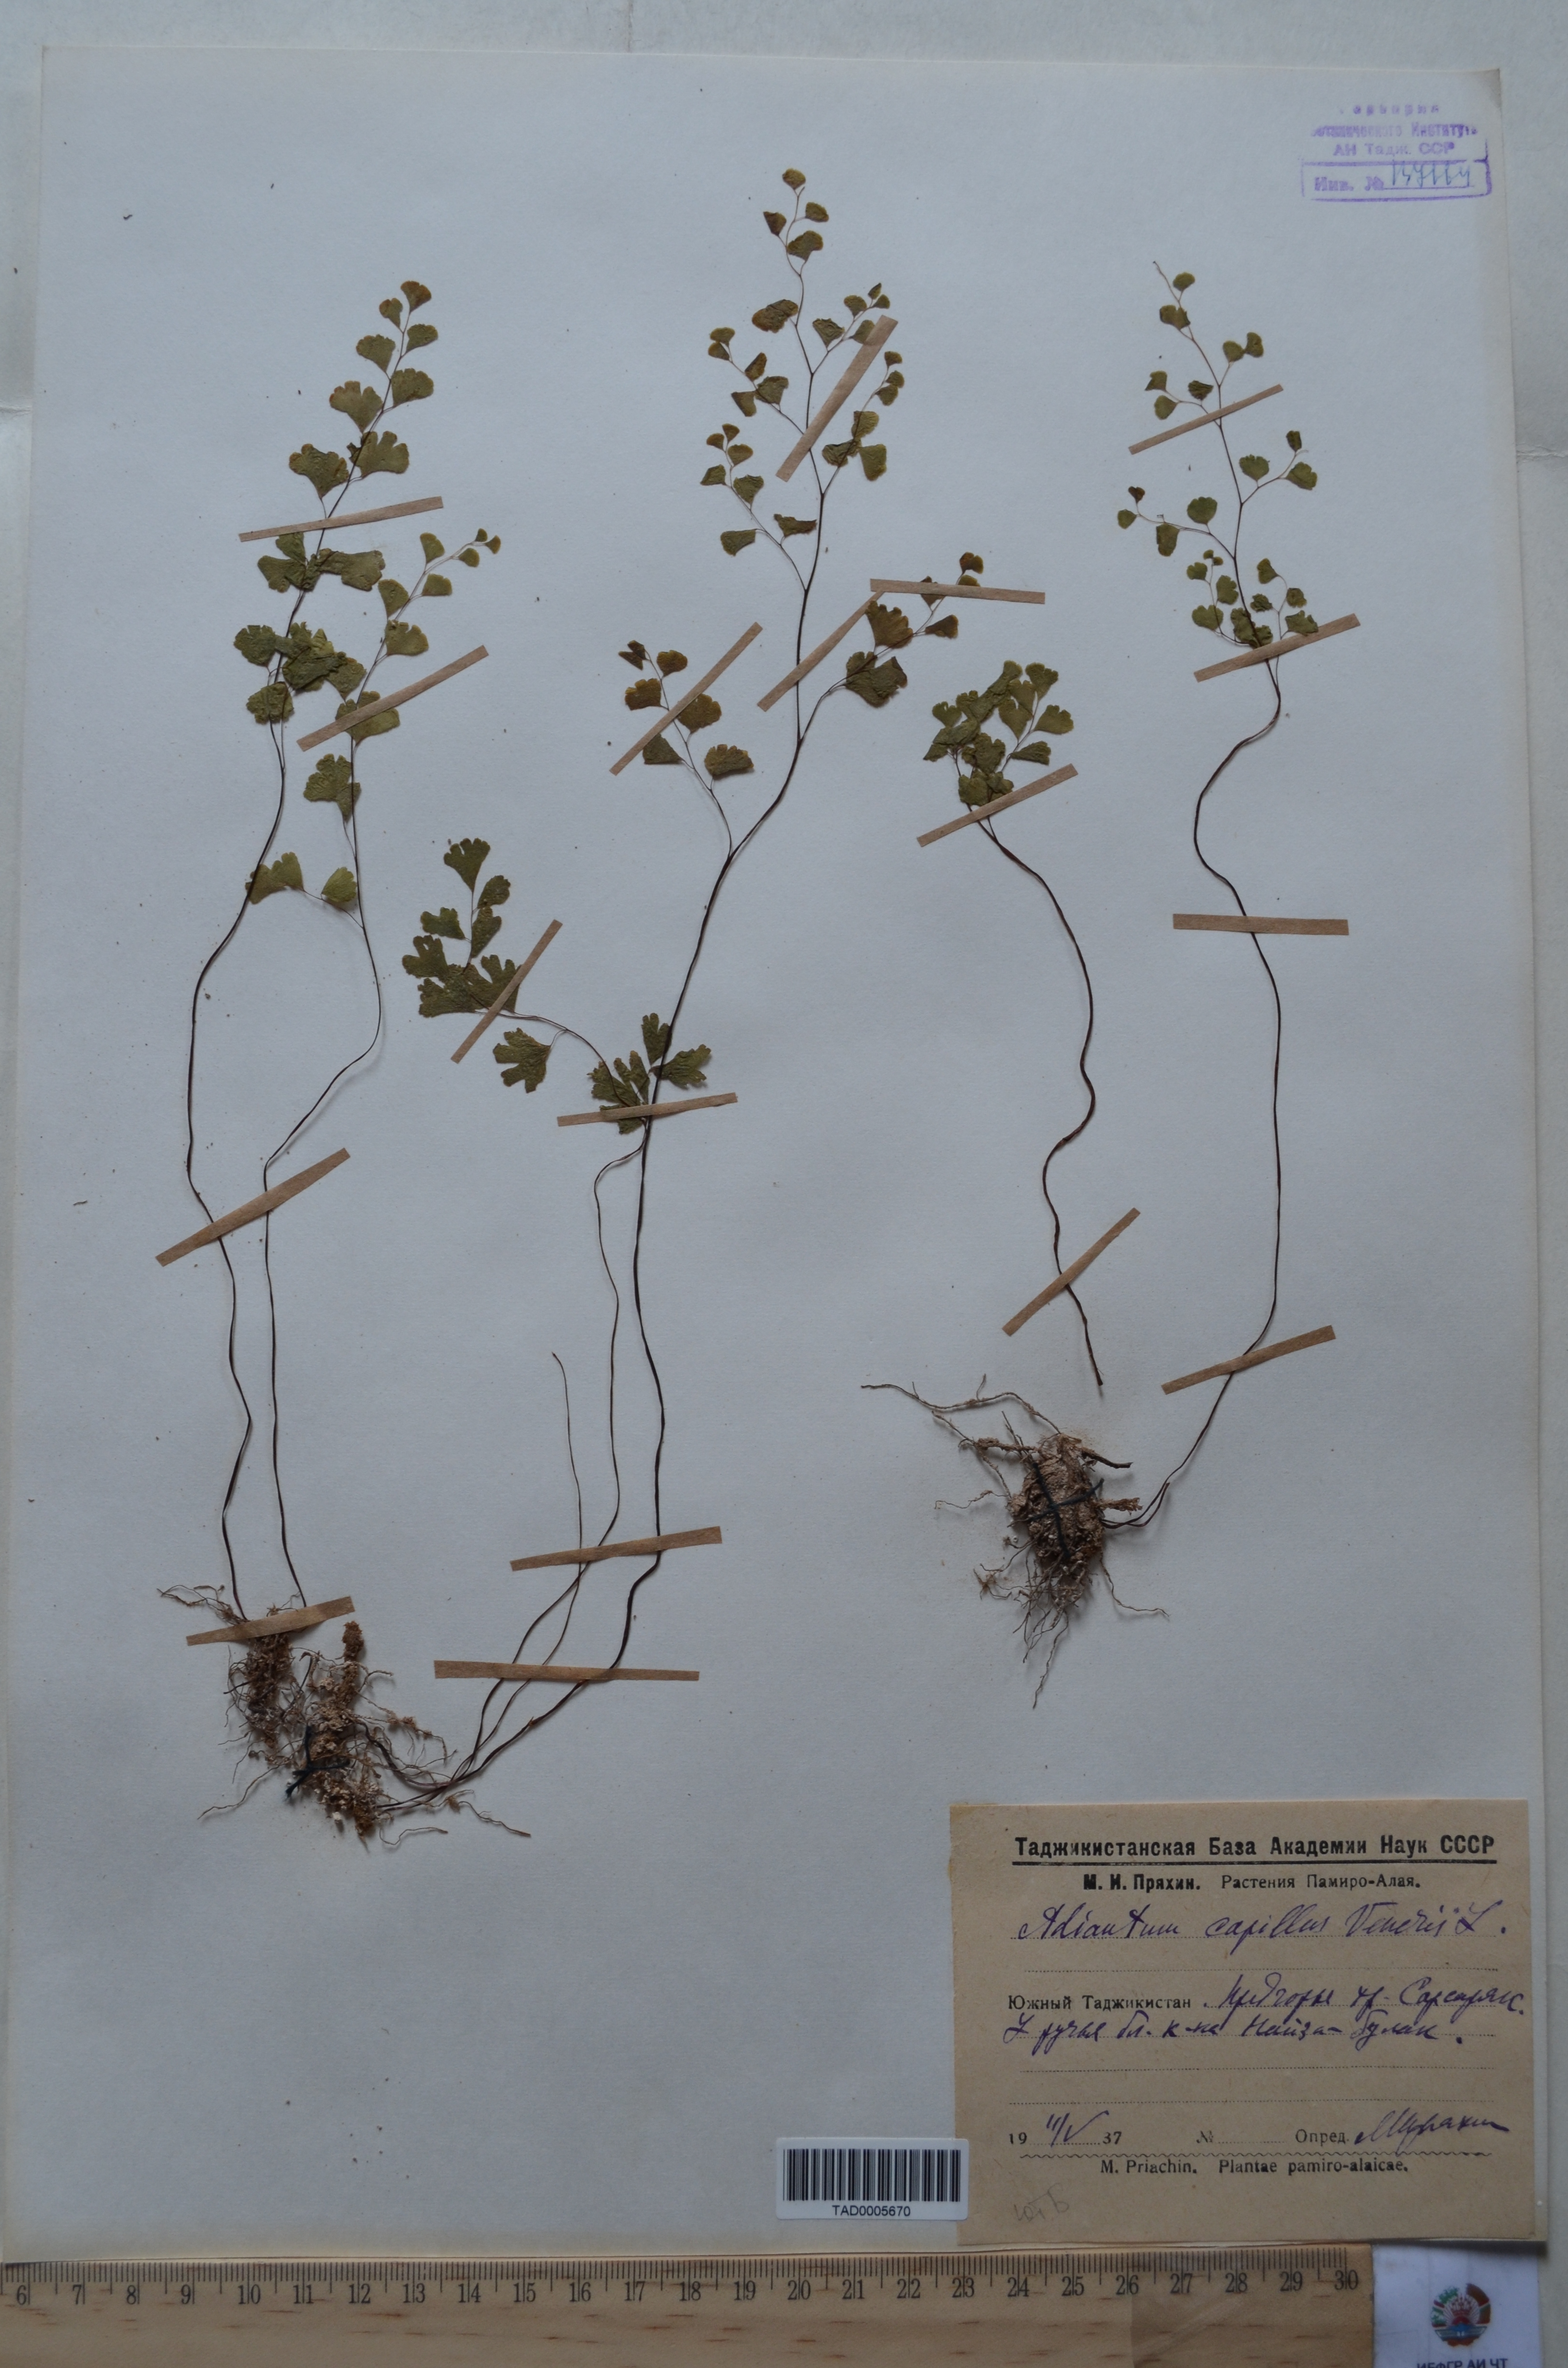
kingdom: Plantae
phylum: Tracheophyta
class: Polypodiopsida
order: Polypodiales
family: Pteridaceae
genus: Adiantum
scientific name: Adiantum capillus-veneris
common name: Maidenhair fern
